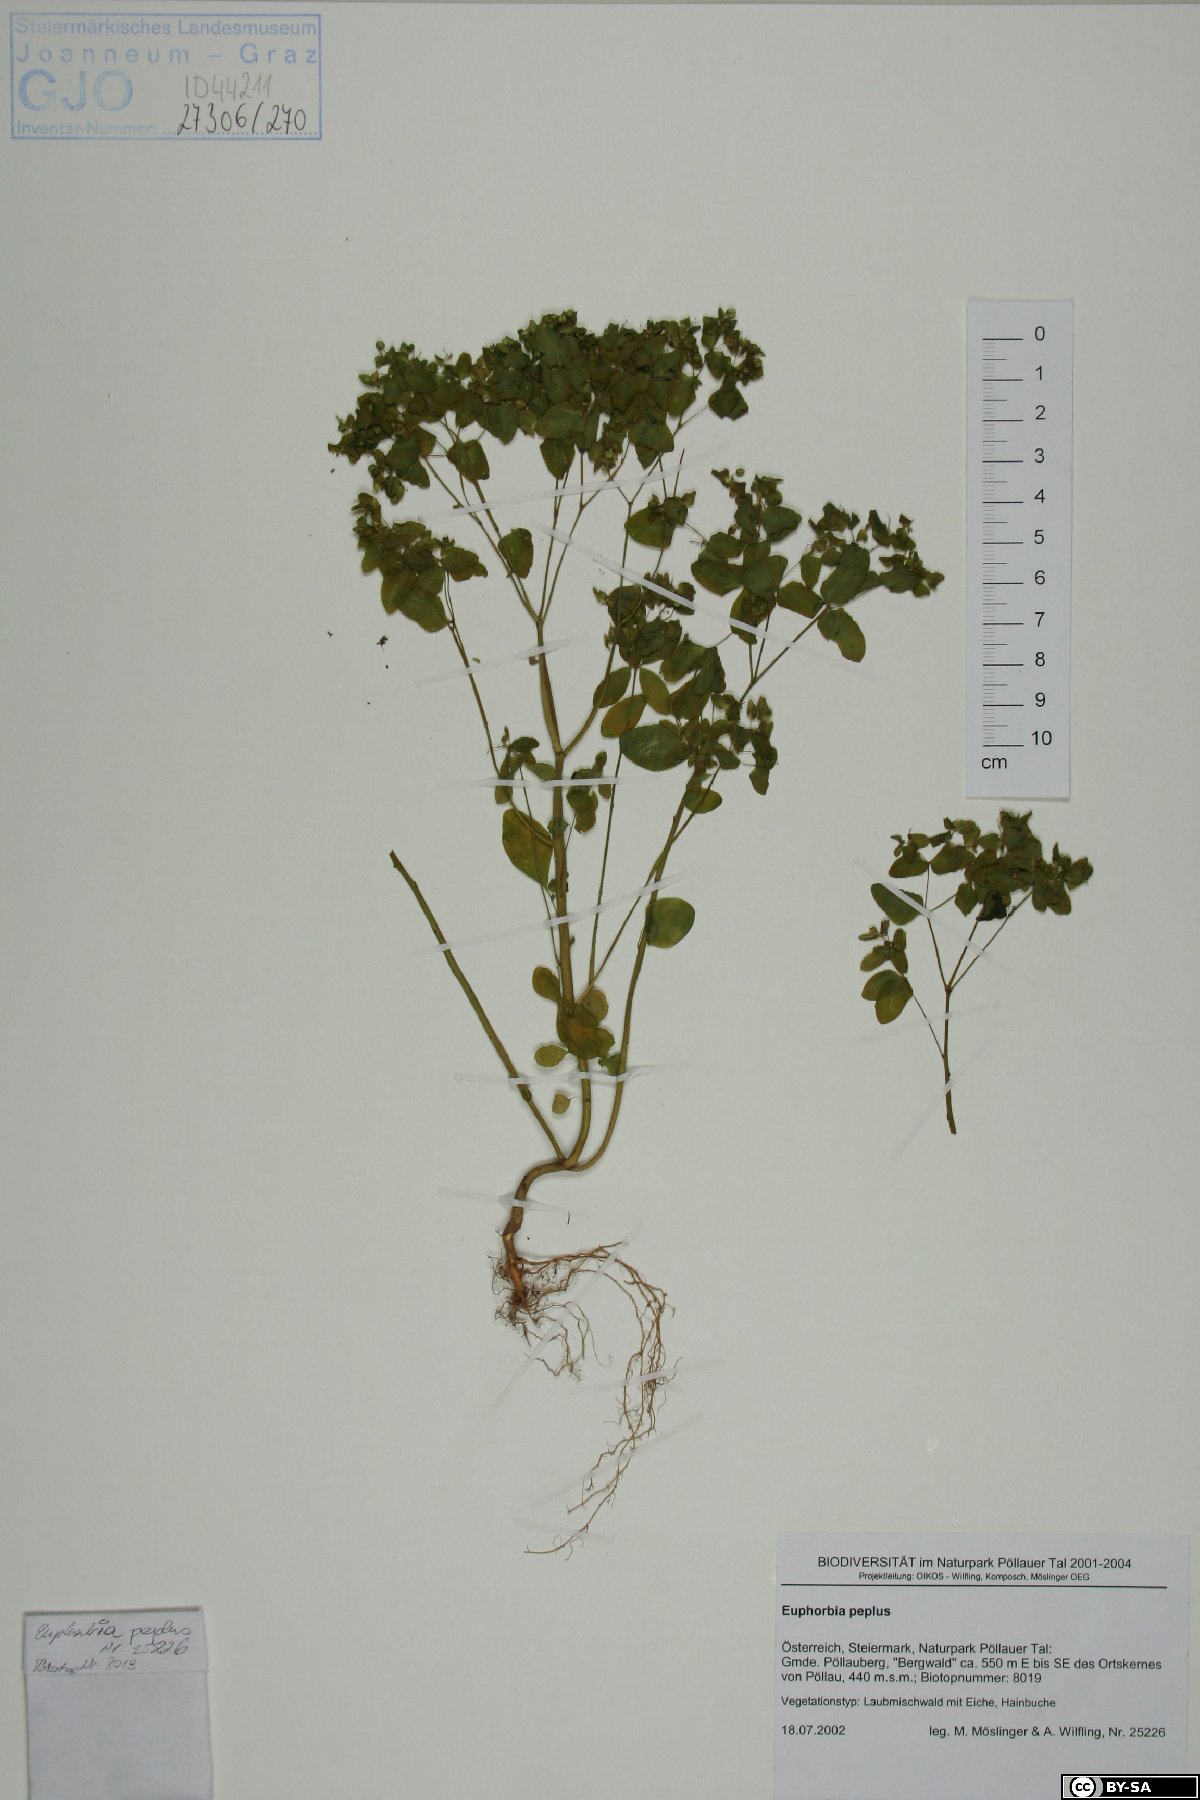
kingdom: Plantae
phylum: Tracheophyta
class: Magnoliopsida
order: Malpighiales
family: Euphorbiaceae
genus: Euphorbia
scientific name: Euphorbia peplus
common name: Petty spurge
